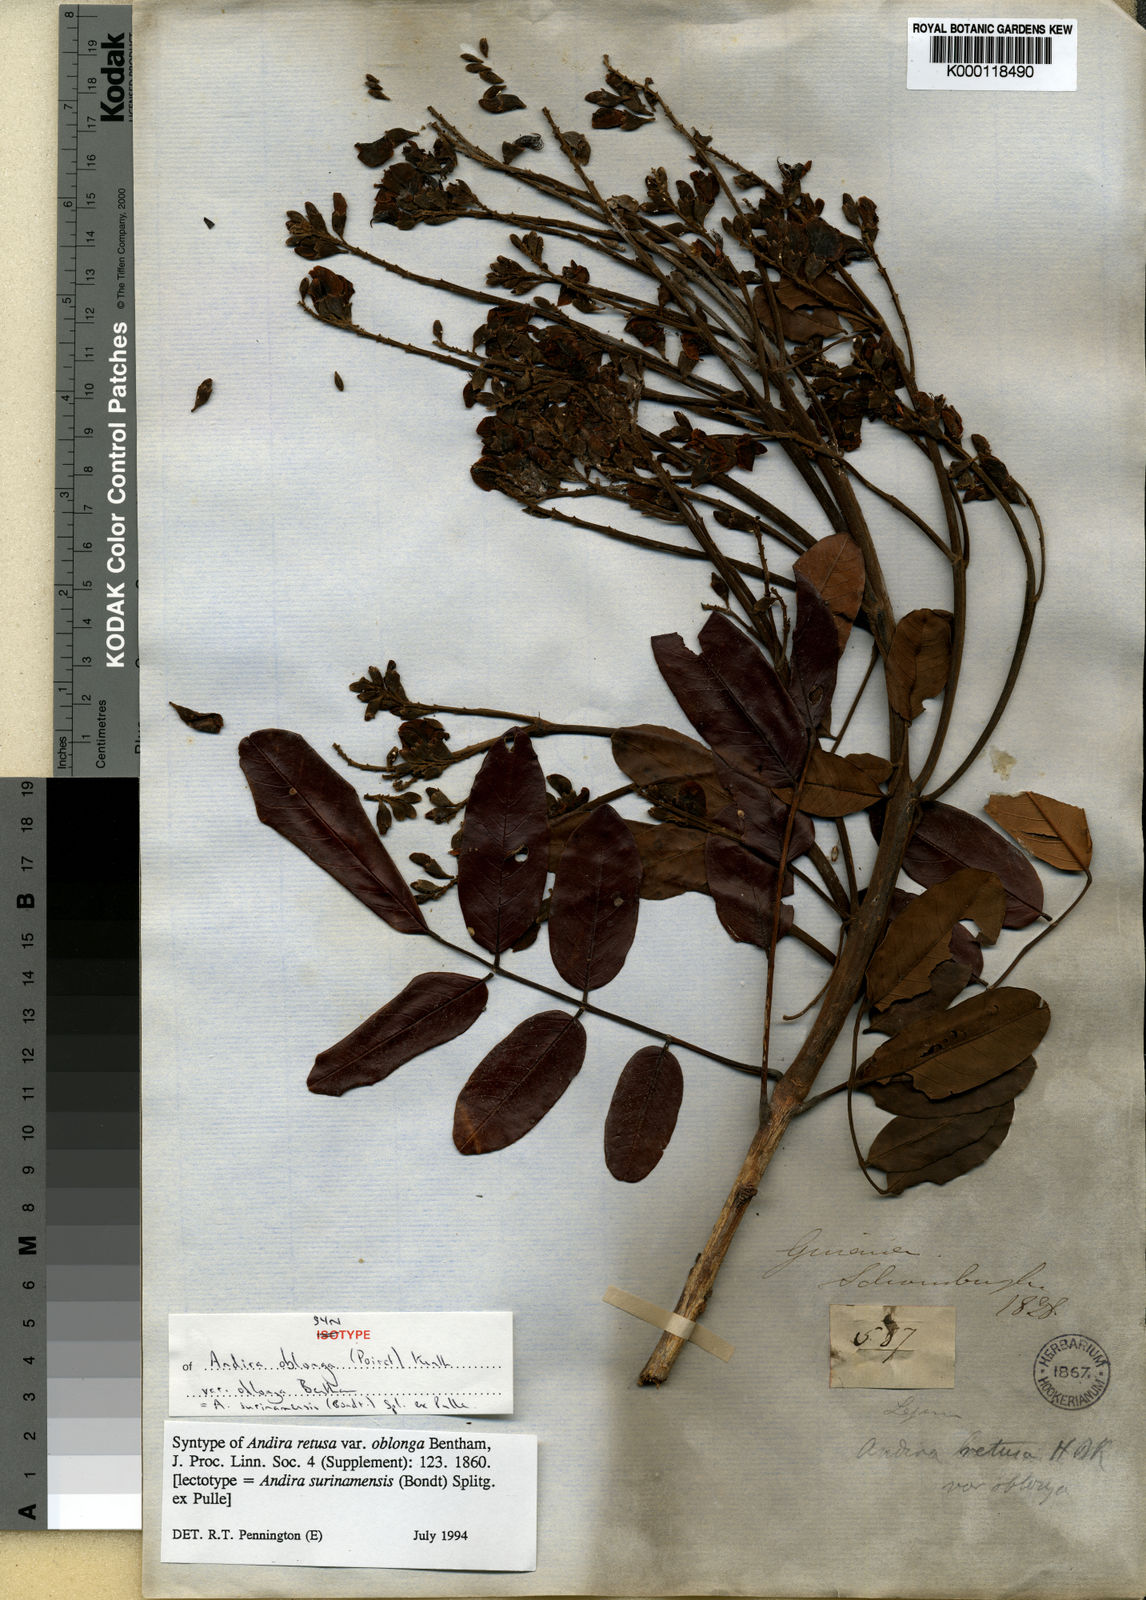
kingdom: Plantae
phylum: Tracheophyta
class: Magnoliopsida
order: Fabales
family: Fabaceae
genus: Andira
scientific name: Andira
